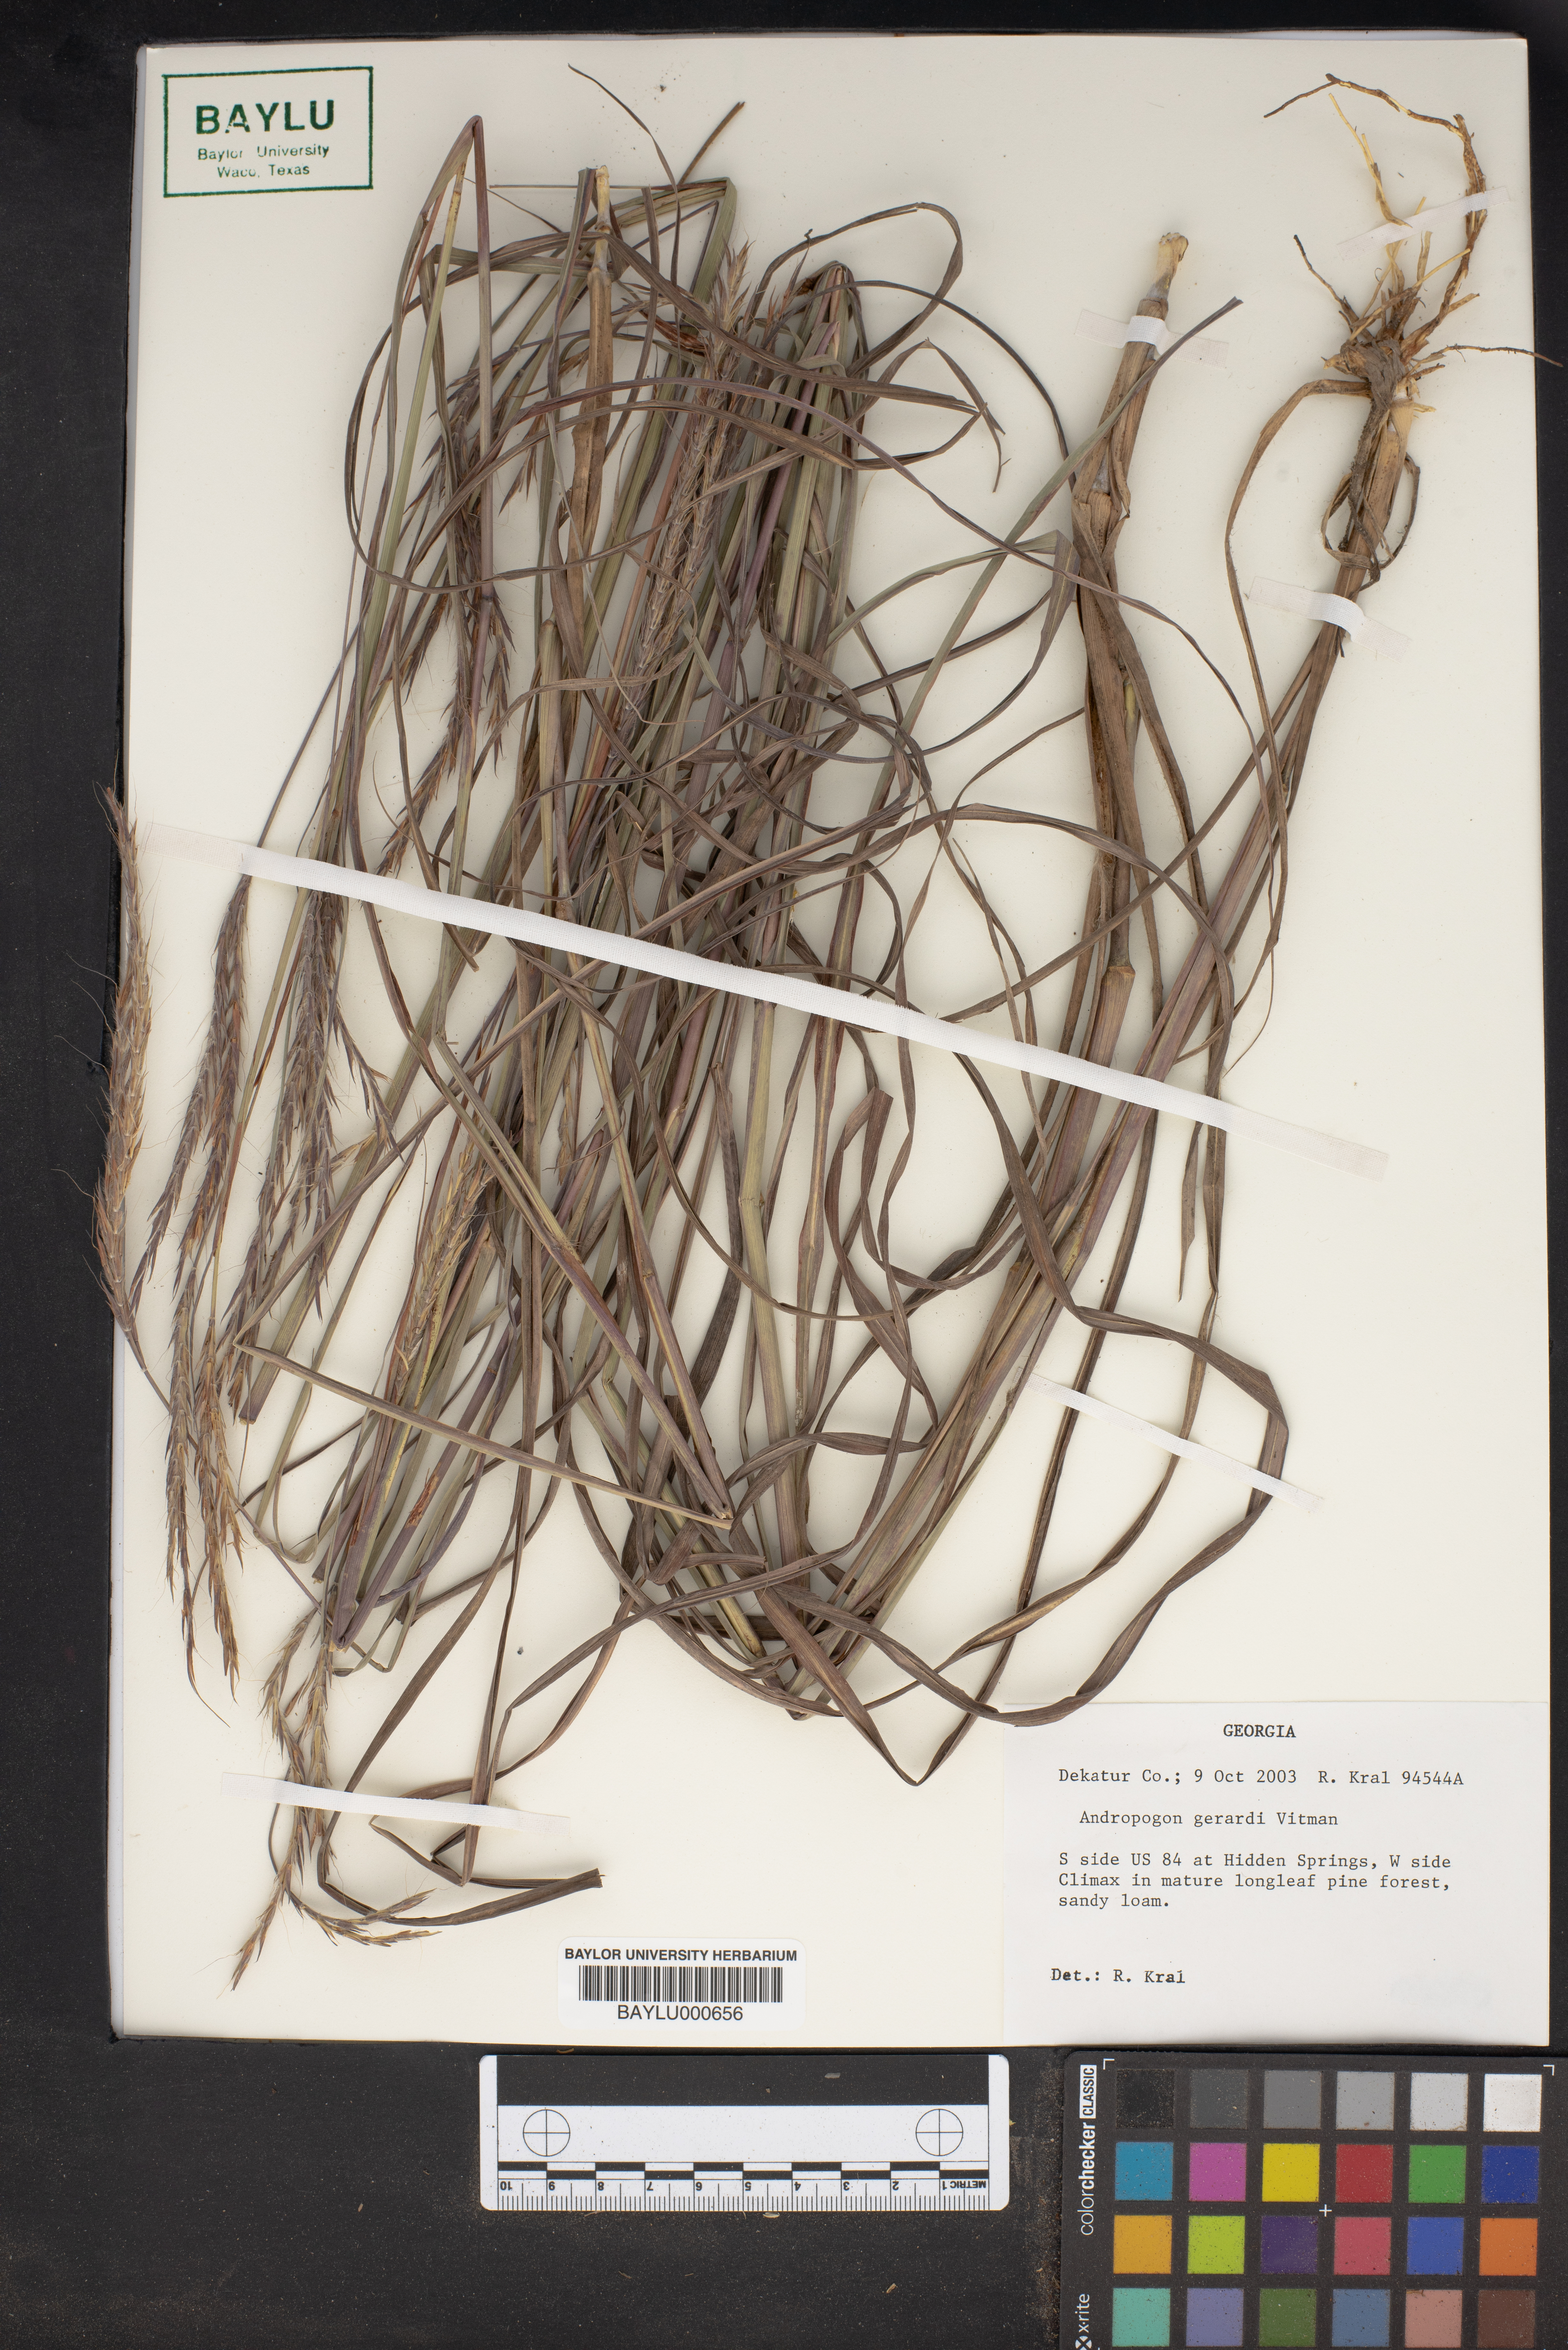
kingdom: Plantae
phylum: Tracheophyta
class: Liliopsida
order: Poales
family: Poaceae
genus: Andropogon
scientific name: Andropogon gerardi
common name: Big bluestem
